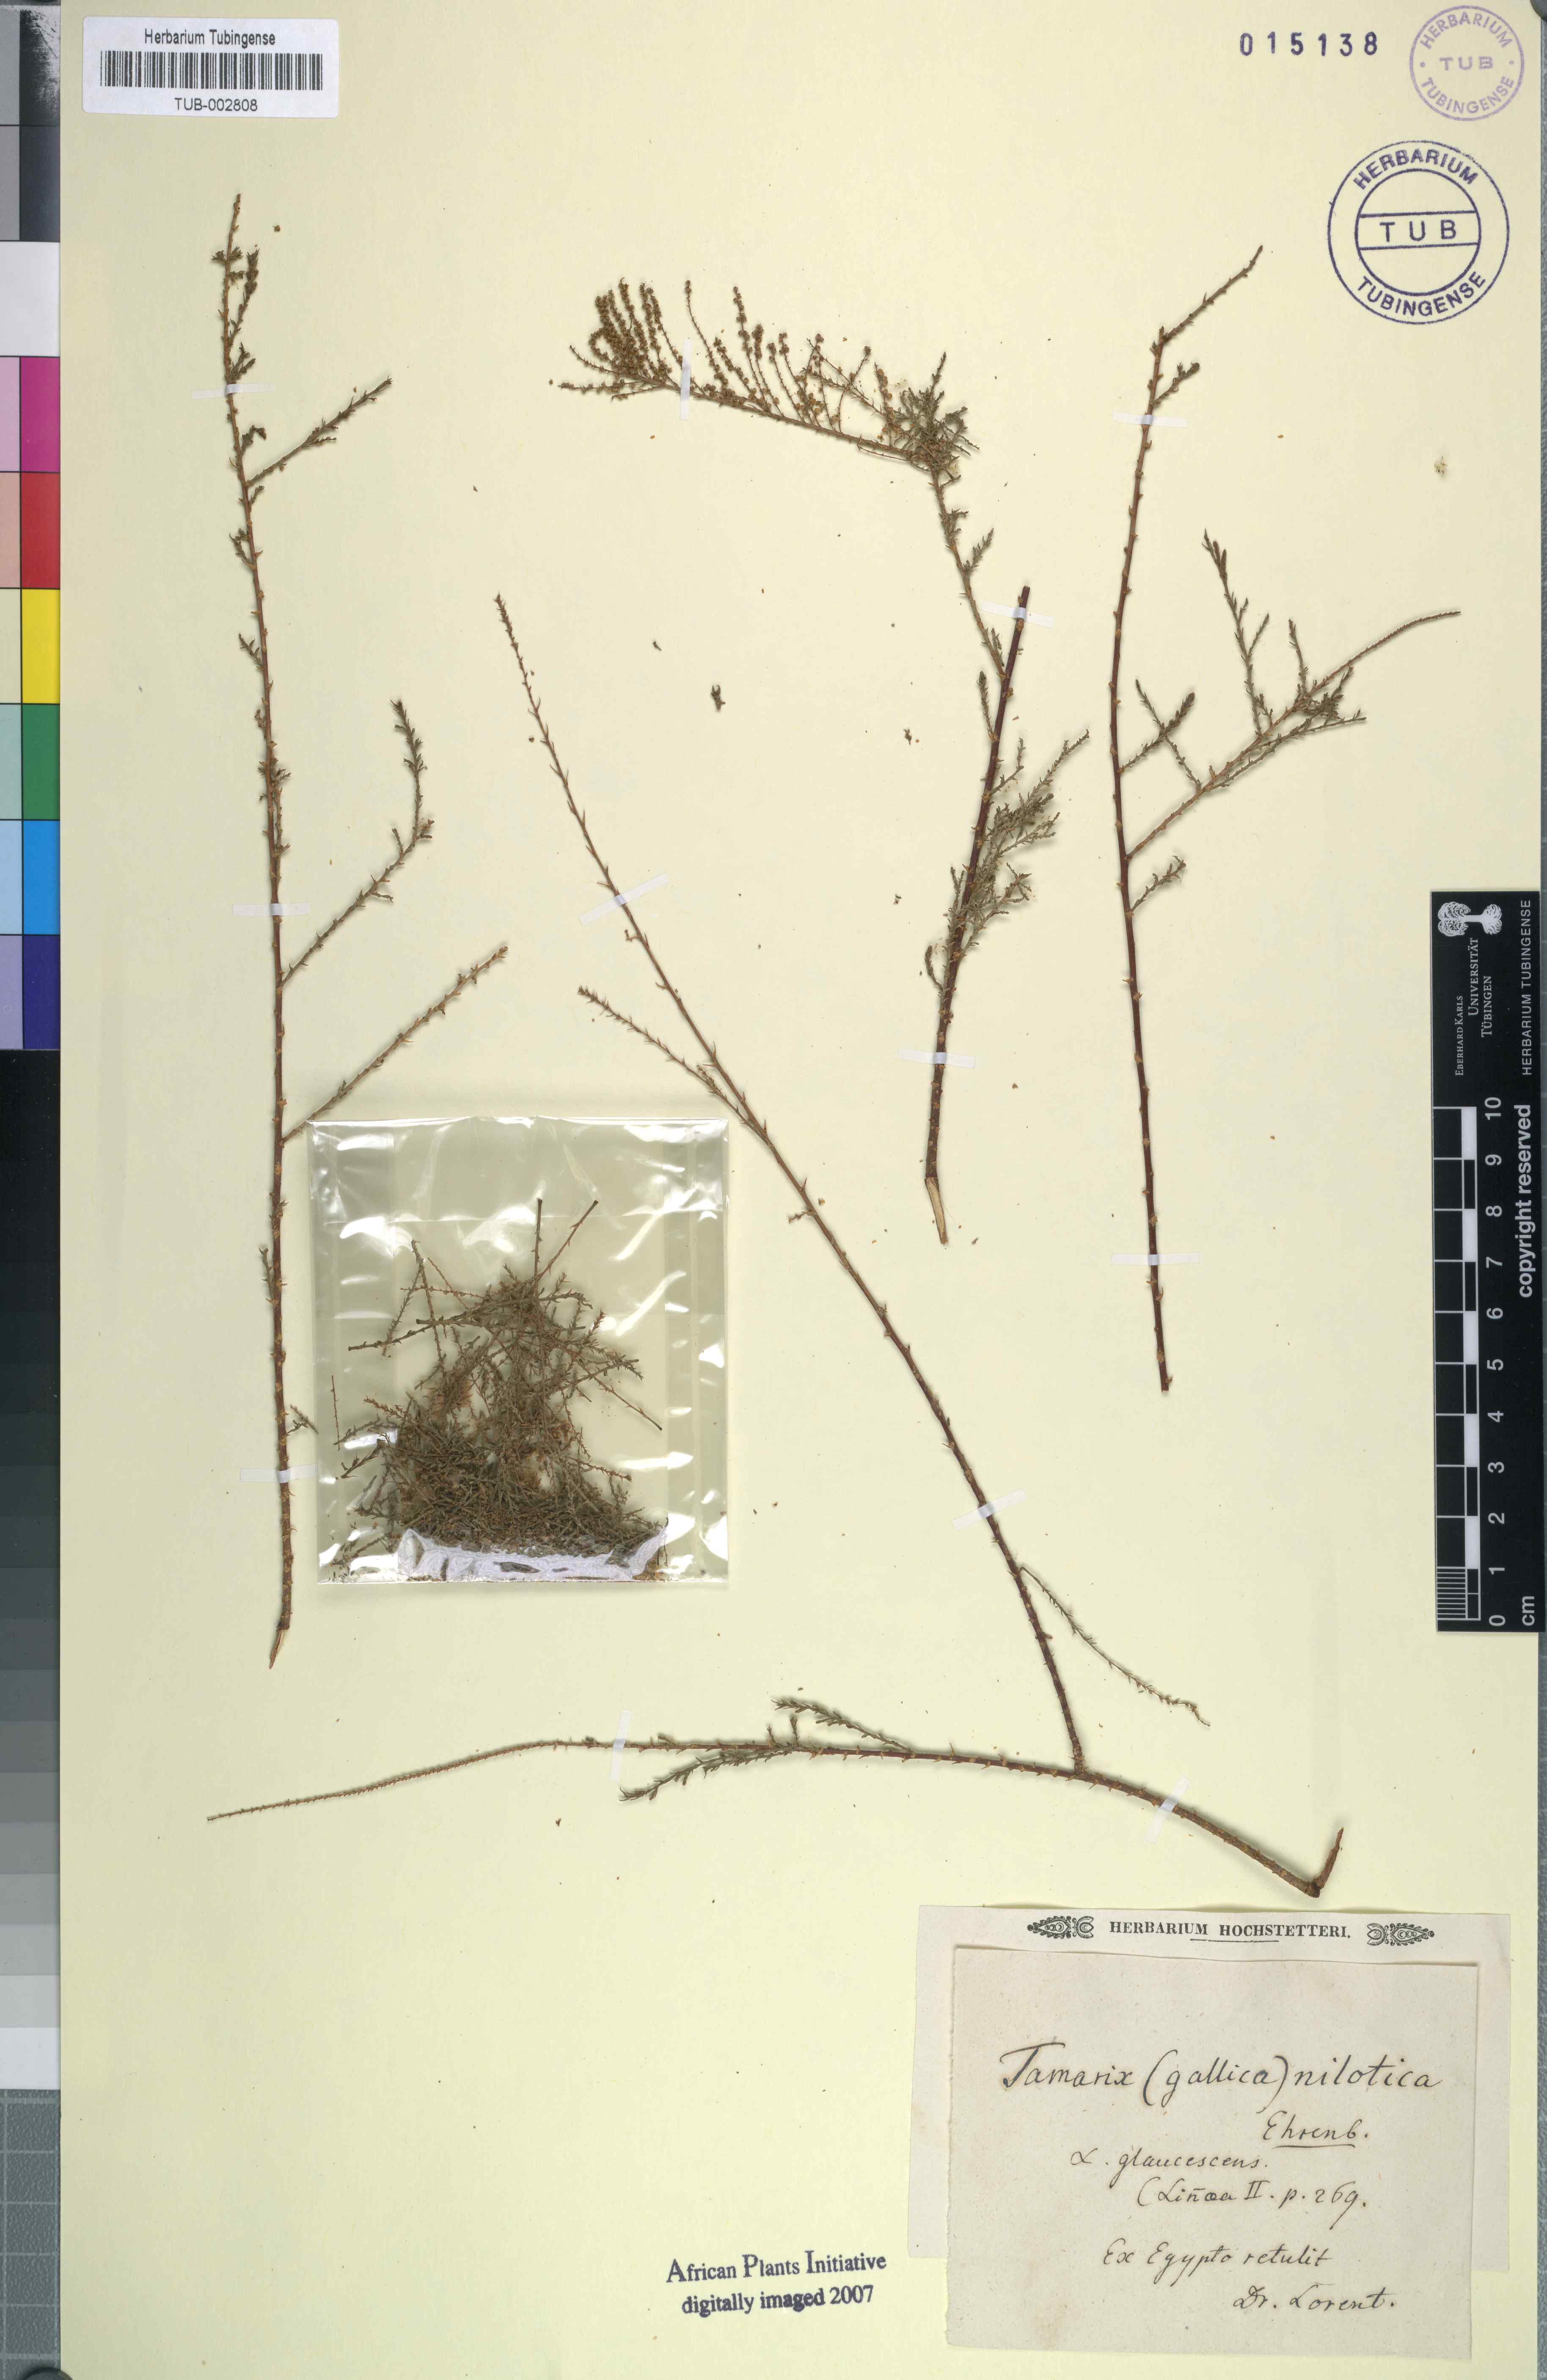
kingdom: Plantae
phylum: Tracheophyta
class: Magnoliopsida
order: Caryophyllales
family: Tamaricaceae
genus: Tamarix
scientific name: Tamarix gallica
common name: Tamarisk
